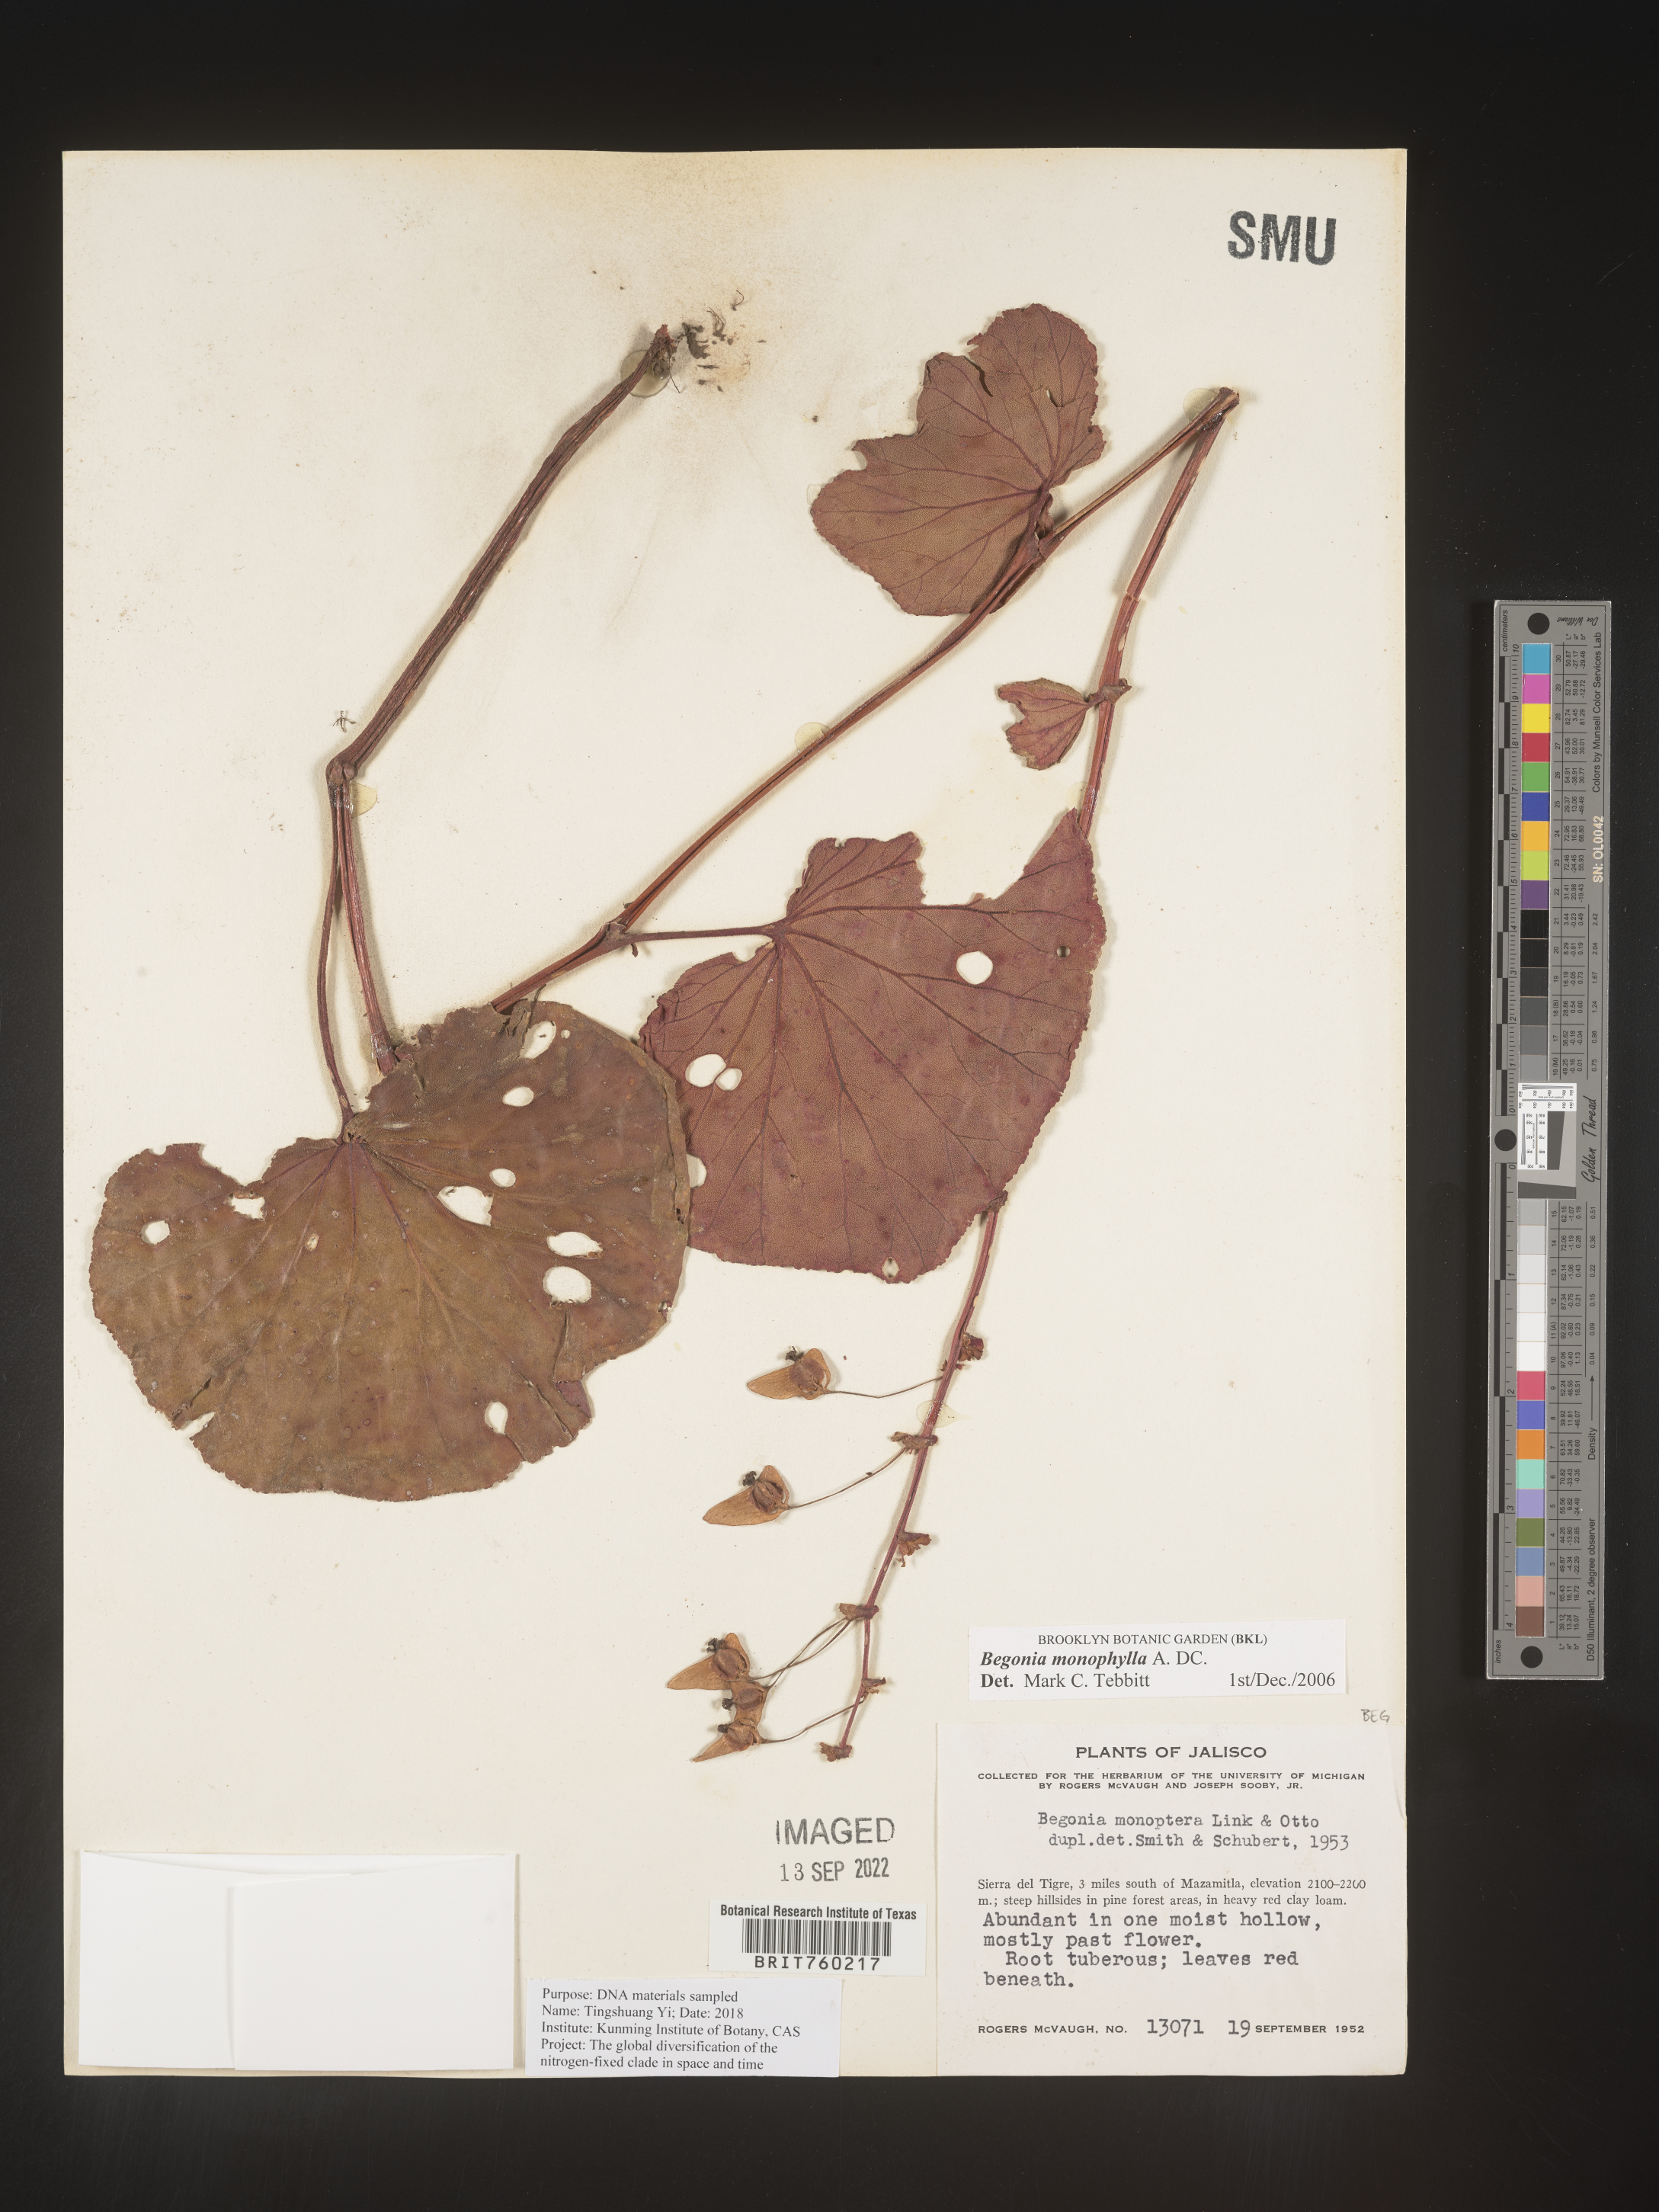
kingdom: Plantae
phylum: Tracheophyta
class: Magnoliopsida
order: Cucurbitales
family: Begoniaceae
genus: Begonia
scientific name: Begonia
